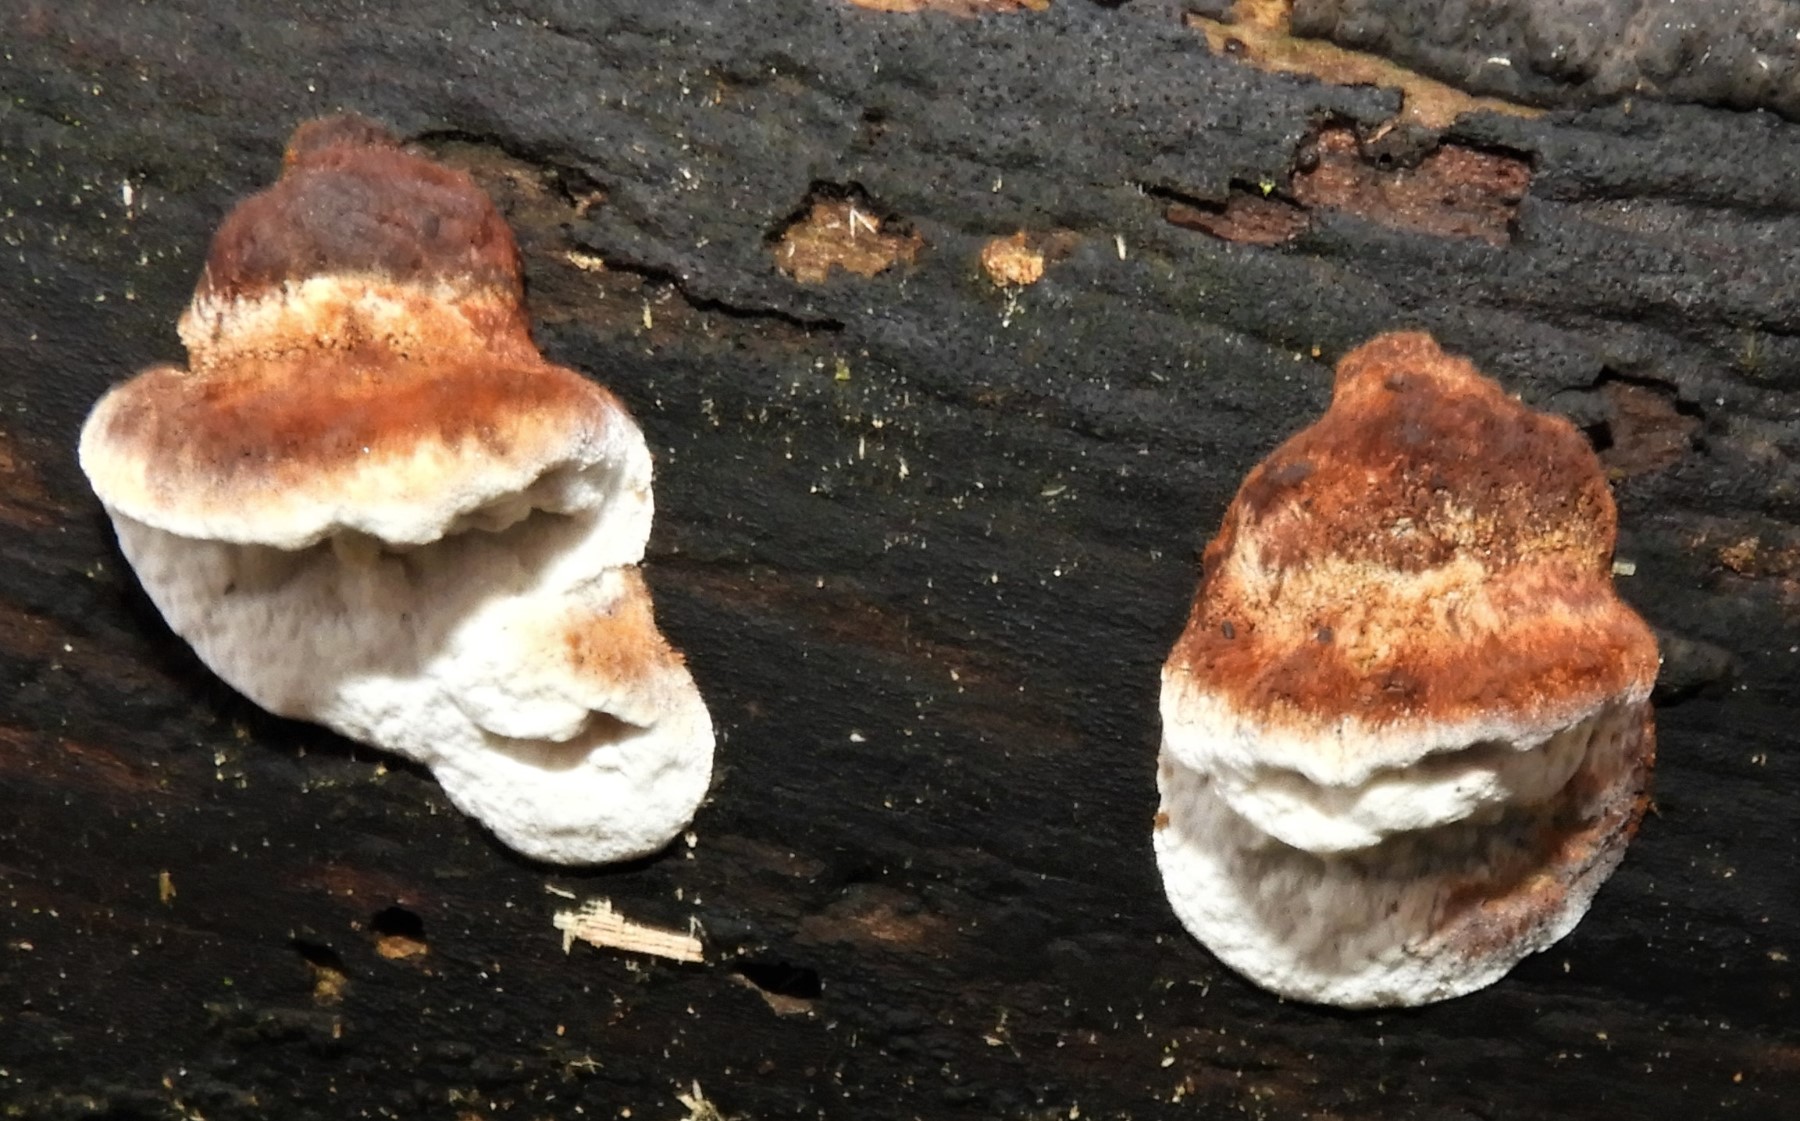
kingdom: Fungi
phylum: Basidiomycota
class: Agaricomycetes
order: Polyporales
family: Incrustoporiaceae
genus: Skeletocutis
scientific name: Skeletocutis nemoralis
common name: stor krystalporesvamp
